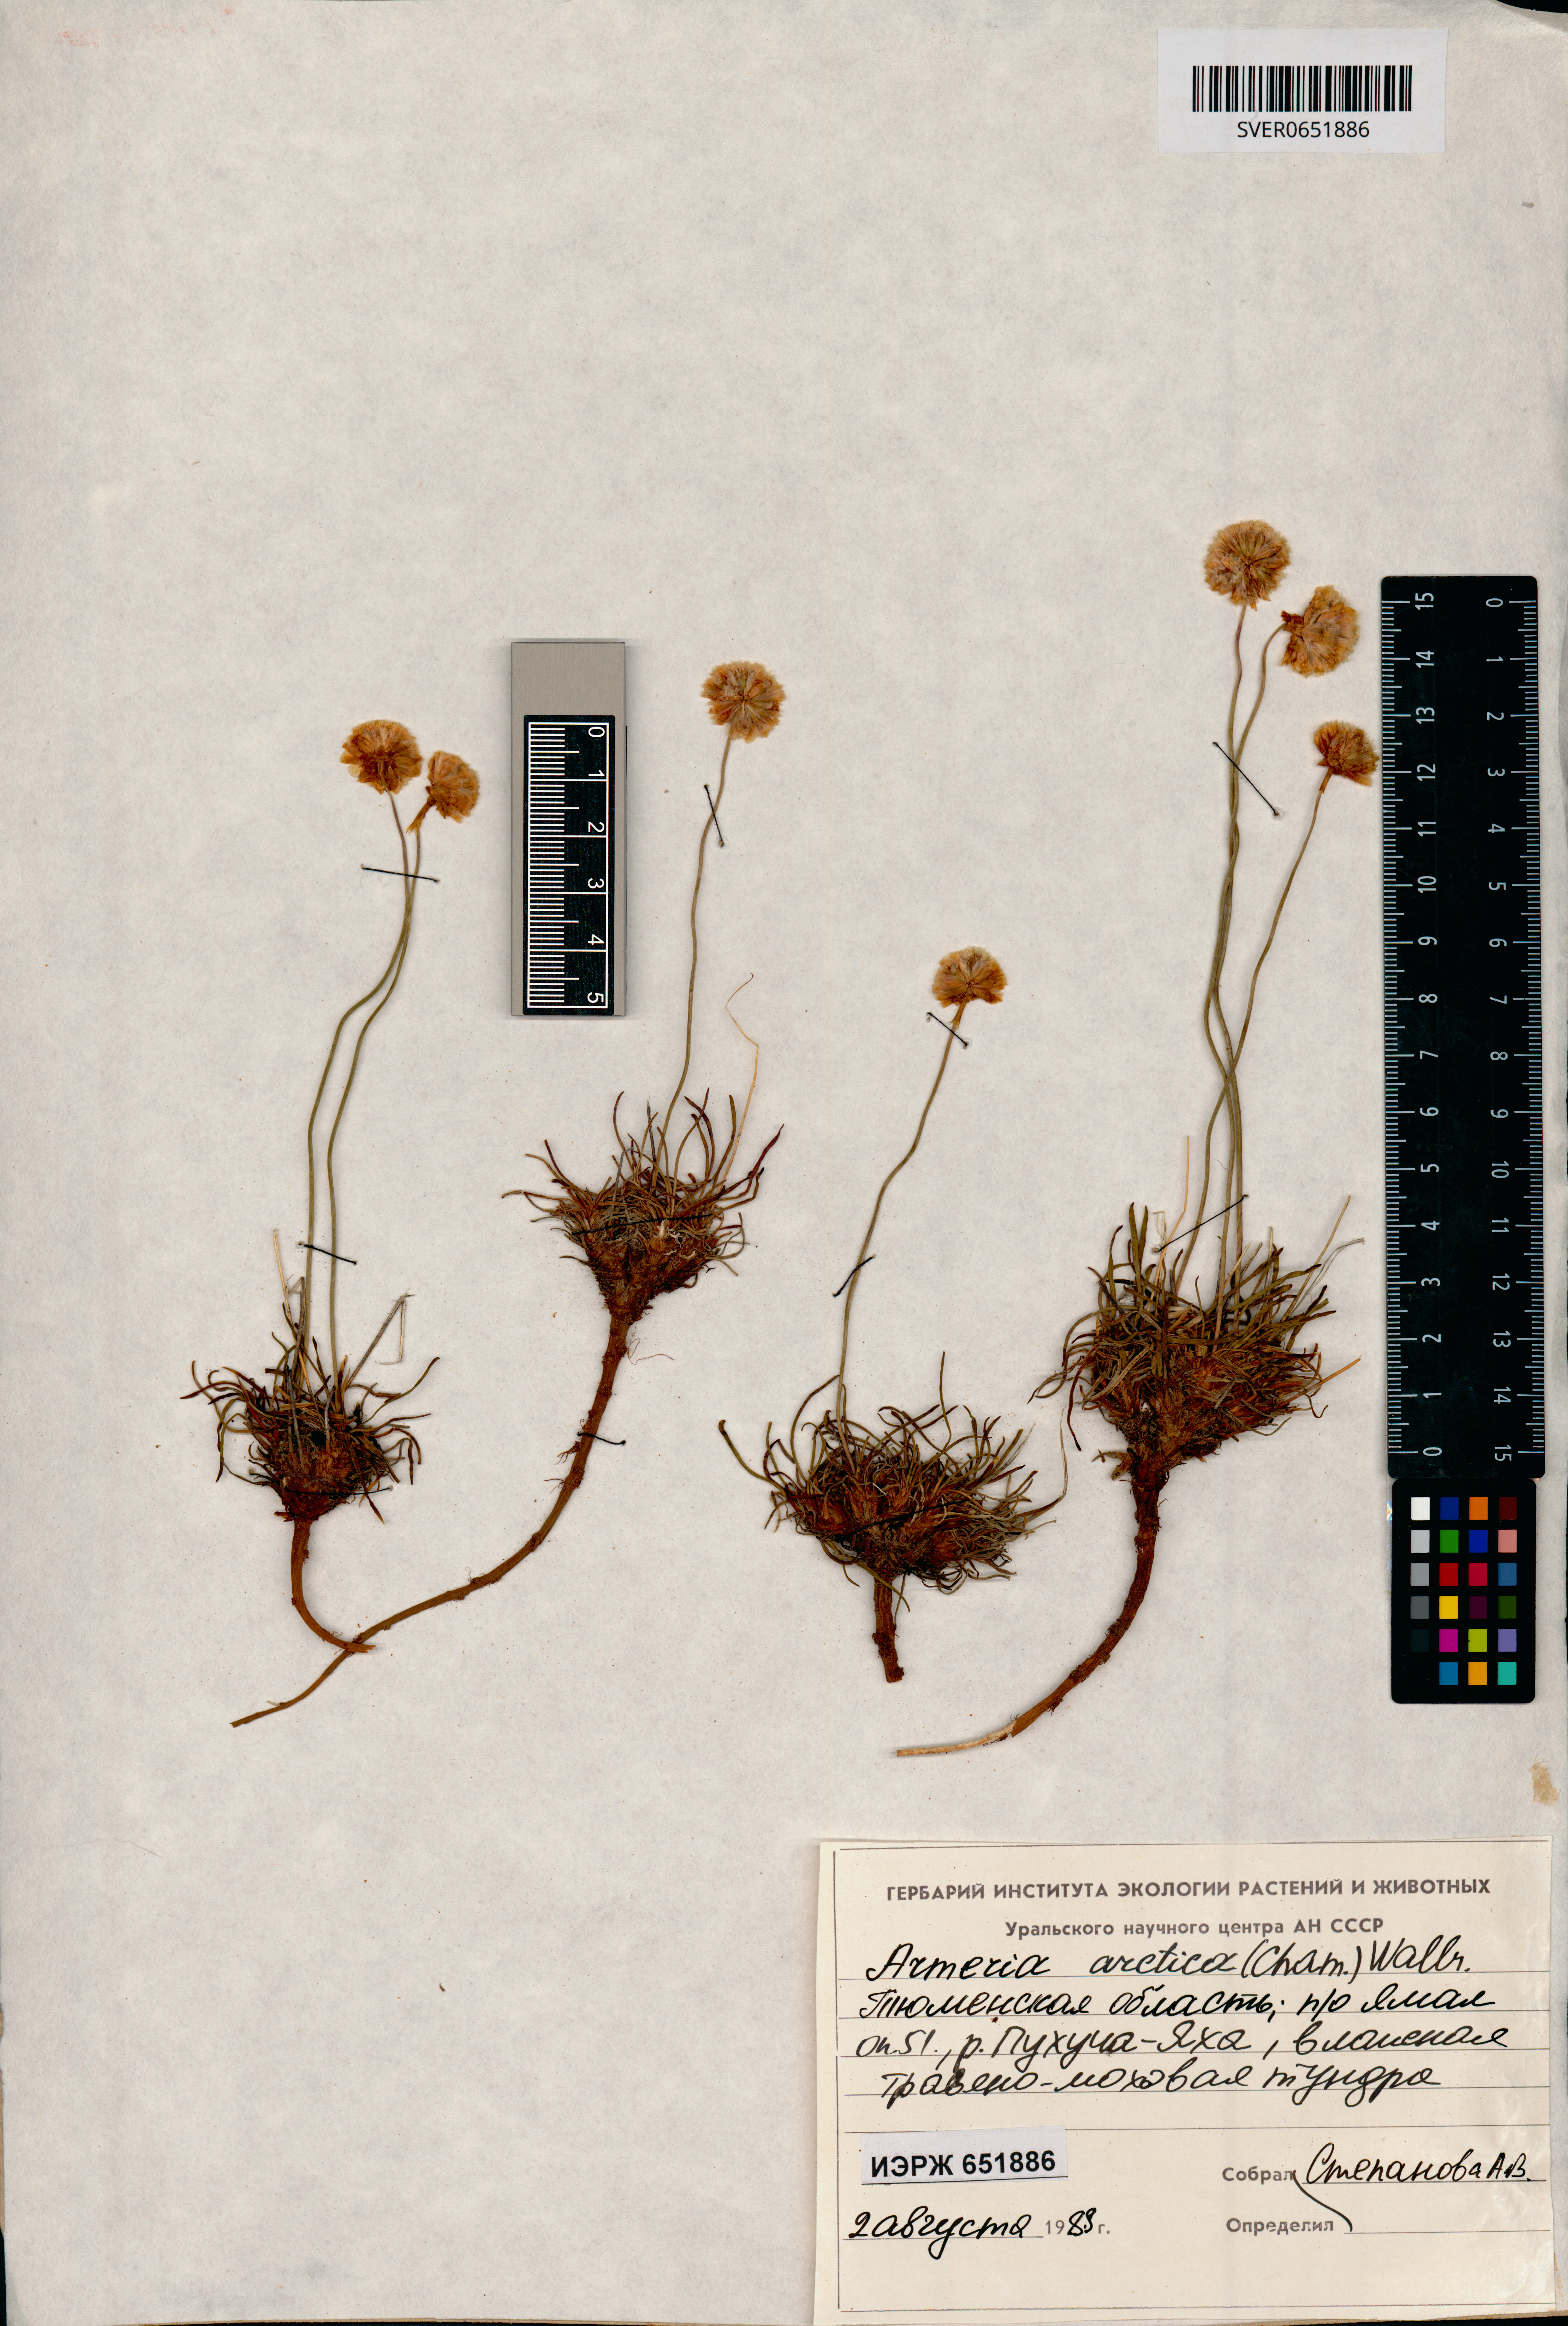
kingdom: Plantae
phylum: Tracheophyta
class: Magnoliopsida
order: Caryophyllales
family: Plumbaginaceae
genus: Armeria
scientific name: Armeria maritima
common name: Thrift
